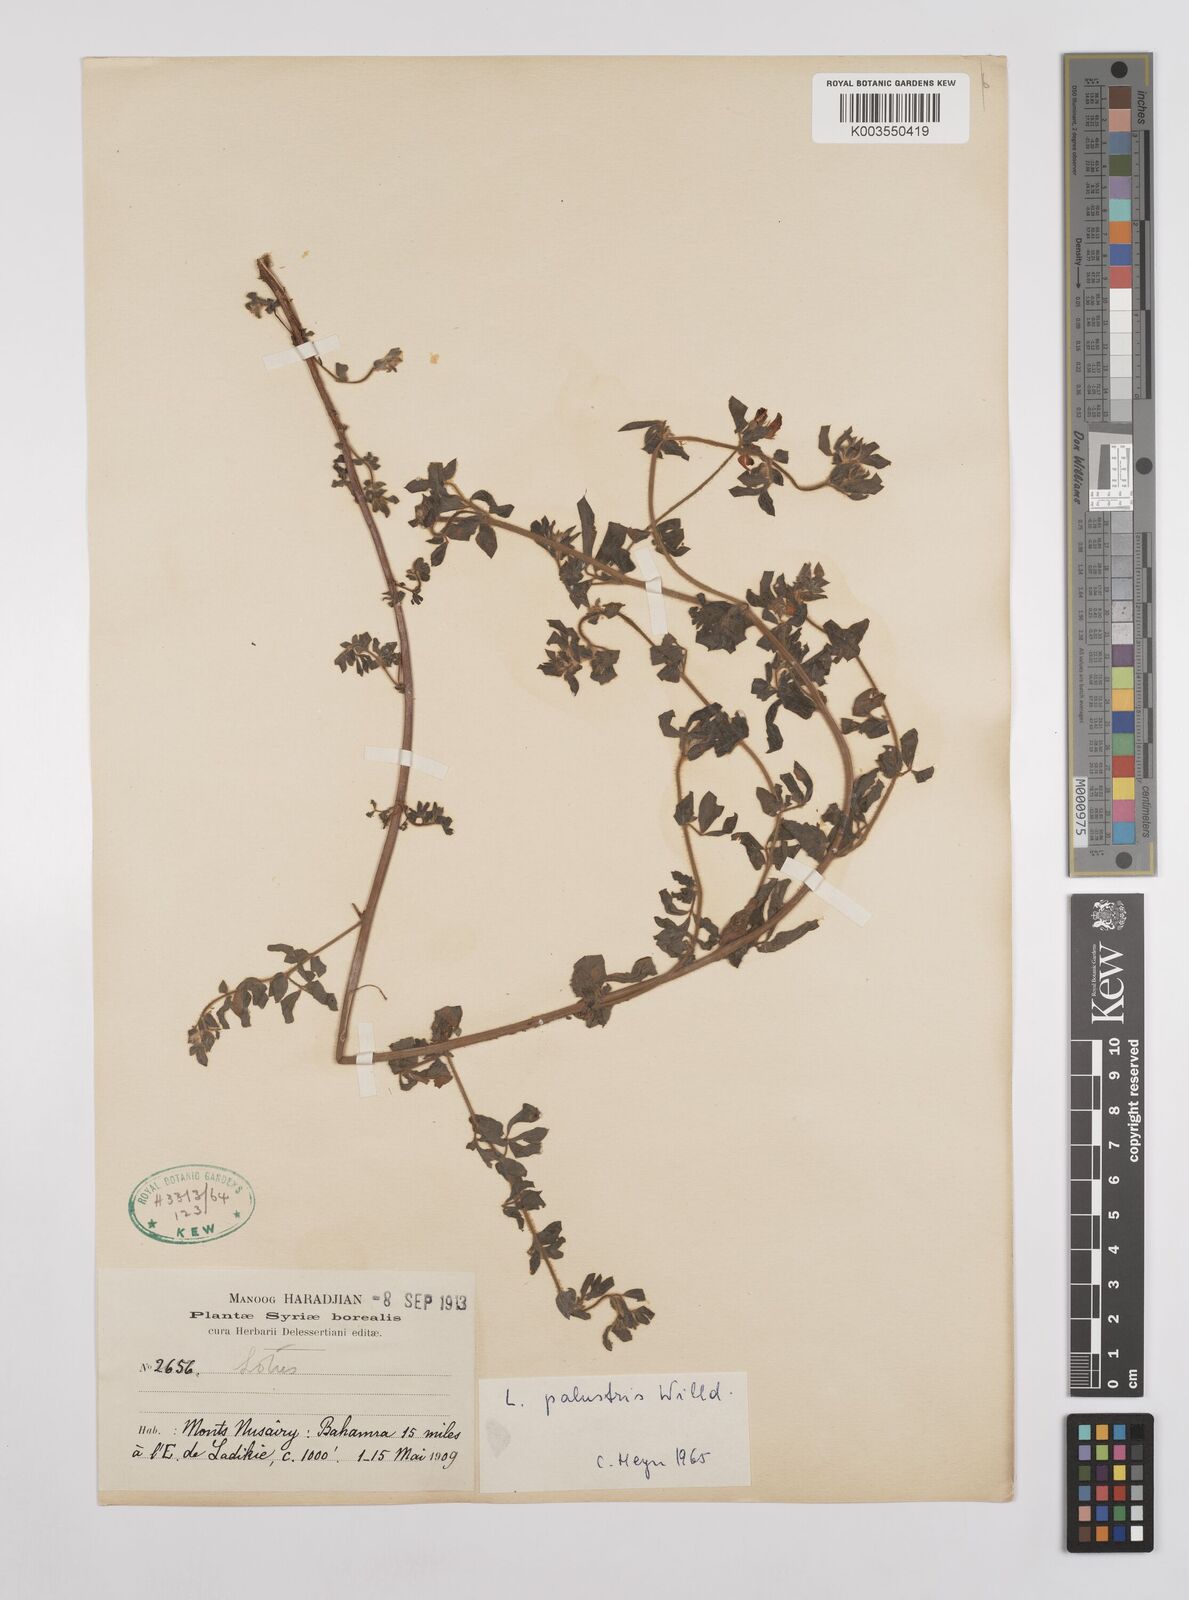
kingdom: Plantae
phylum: Tracheophyta
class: Magnoliopsida
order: Fabales
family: Fabaceae
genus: Lotus
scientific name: Lotus palustris
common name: Large birds-foot trefoil
